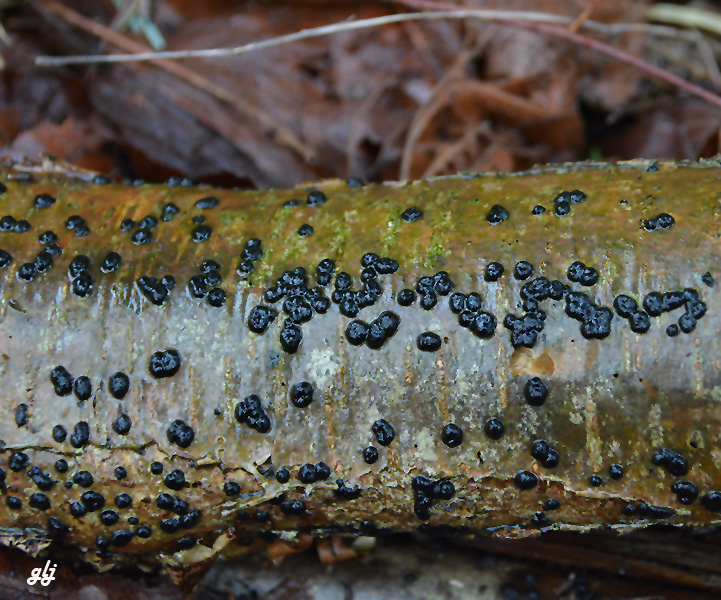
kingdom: Fungi
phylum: Ascomycota
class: Sordariomycetes
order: Xylariales
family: Hypoxylaceae
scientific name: Hypoxylaceae
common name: kulbærfamilien
